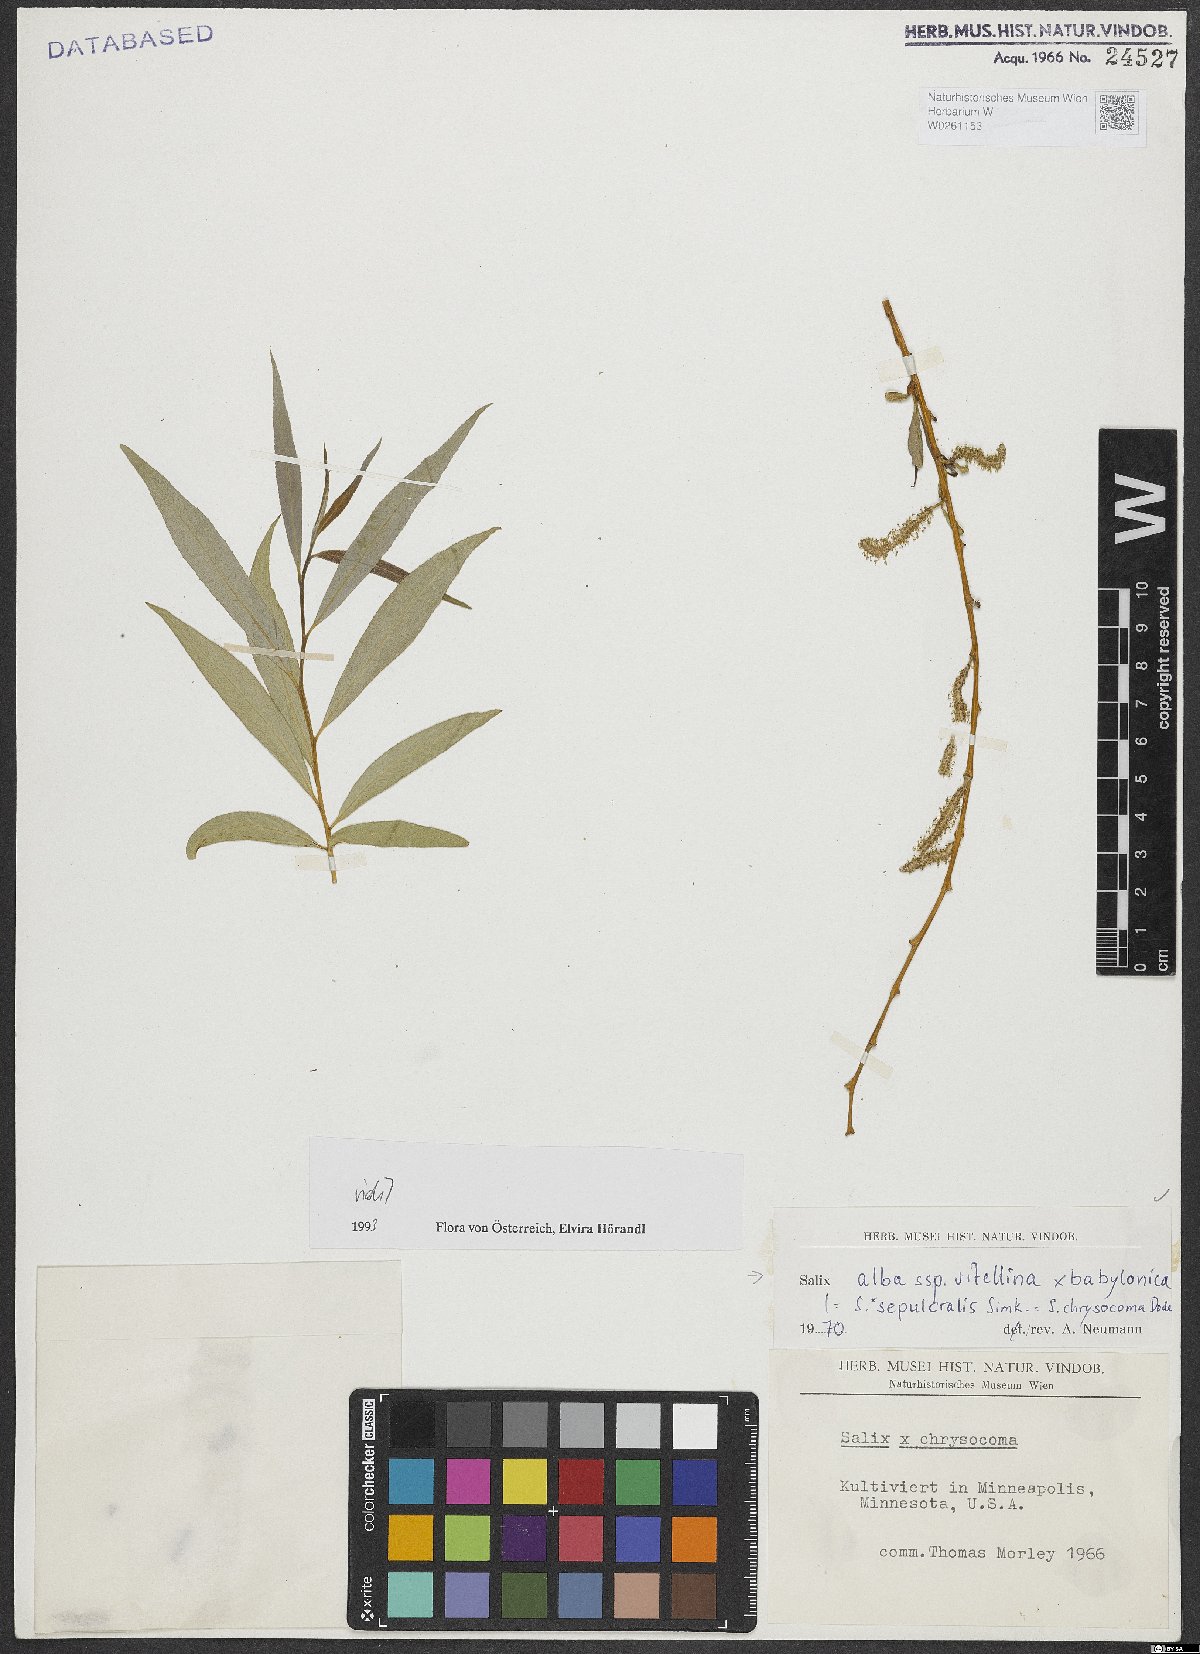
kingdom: Plantae
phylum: Tracheophyta
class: Magnoliopsida
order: Malpighiales
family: Salicaceae
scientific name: Salicaceae
